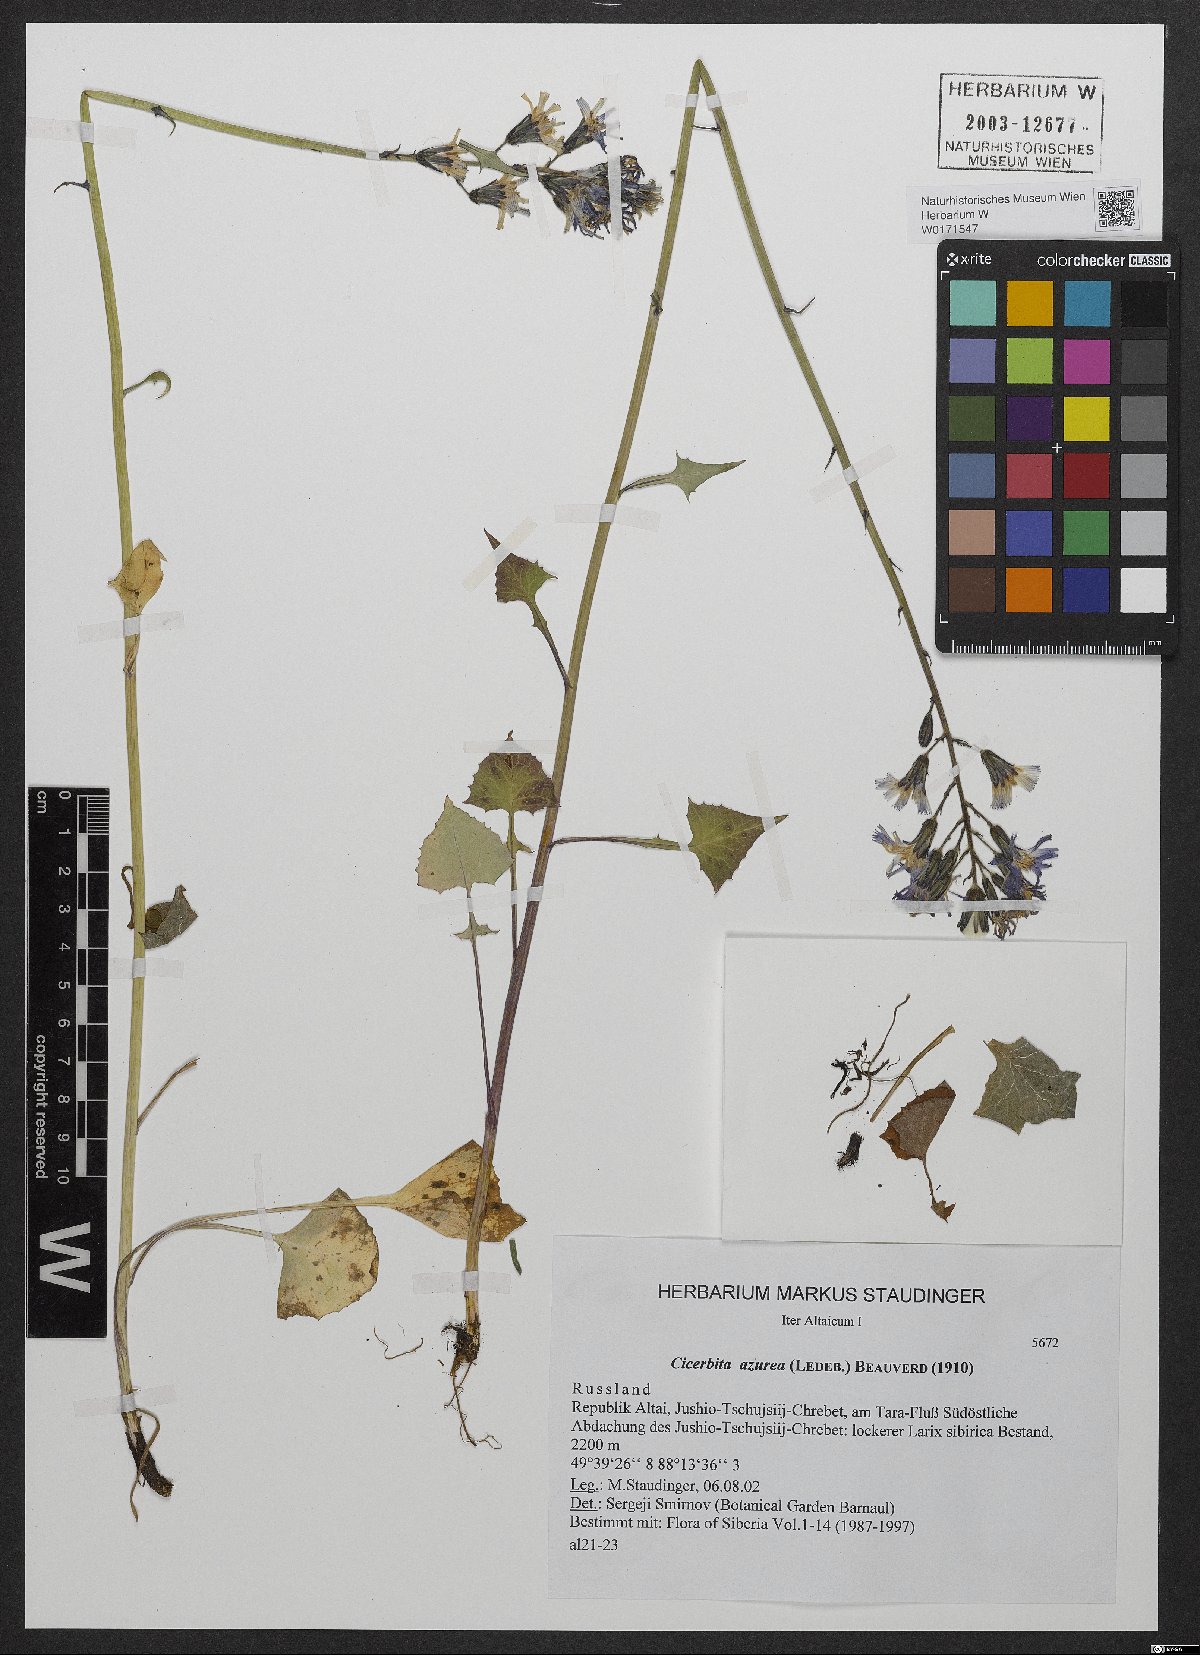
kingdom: Plantae
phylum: Tracheophyta
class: Magnoliopsida
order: Asterales
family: Asteraceae
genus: Cicerbita
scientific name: Cicerbita azurea
